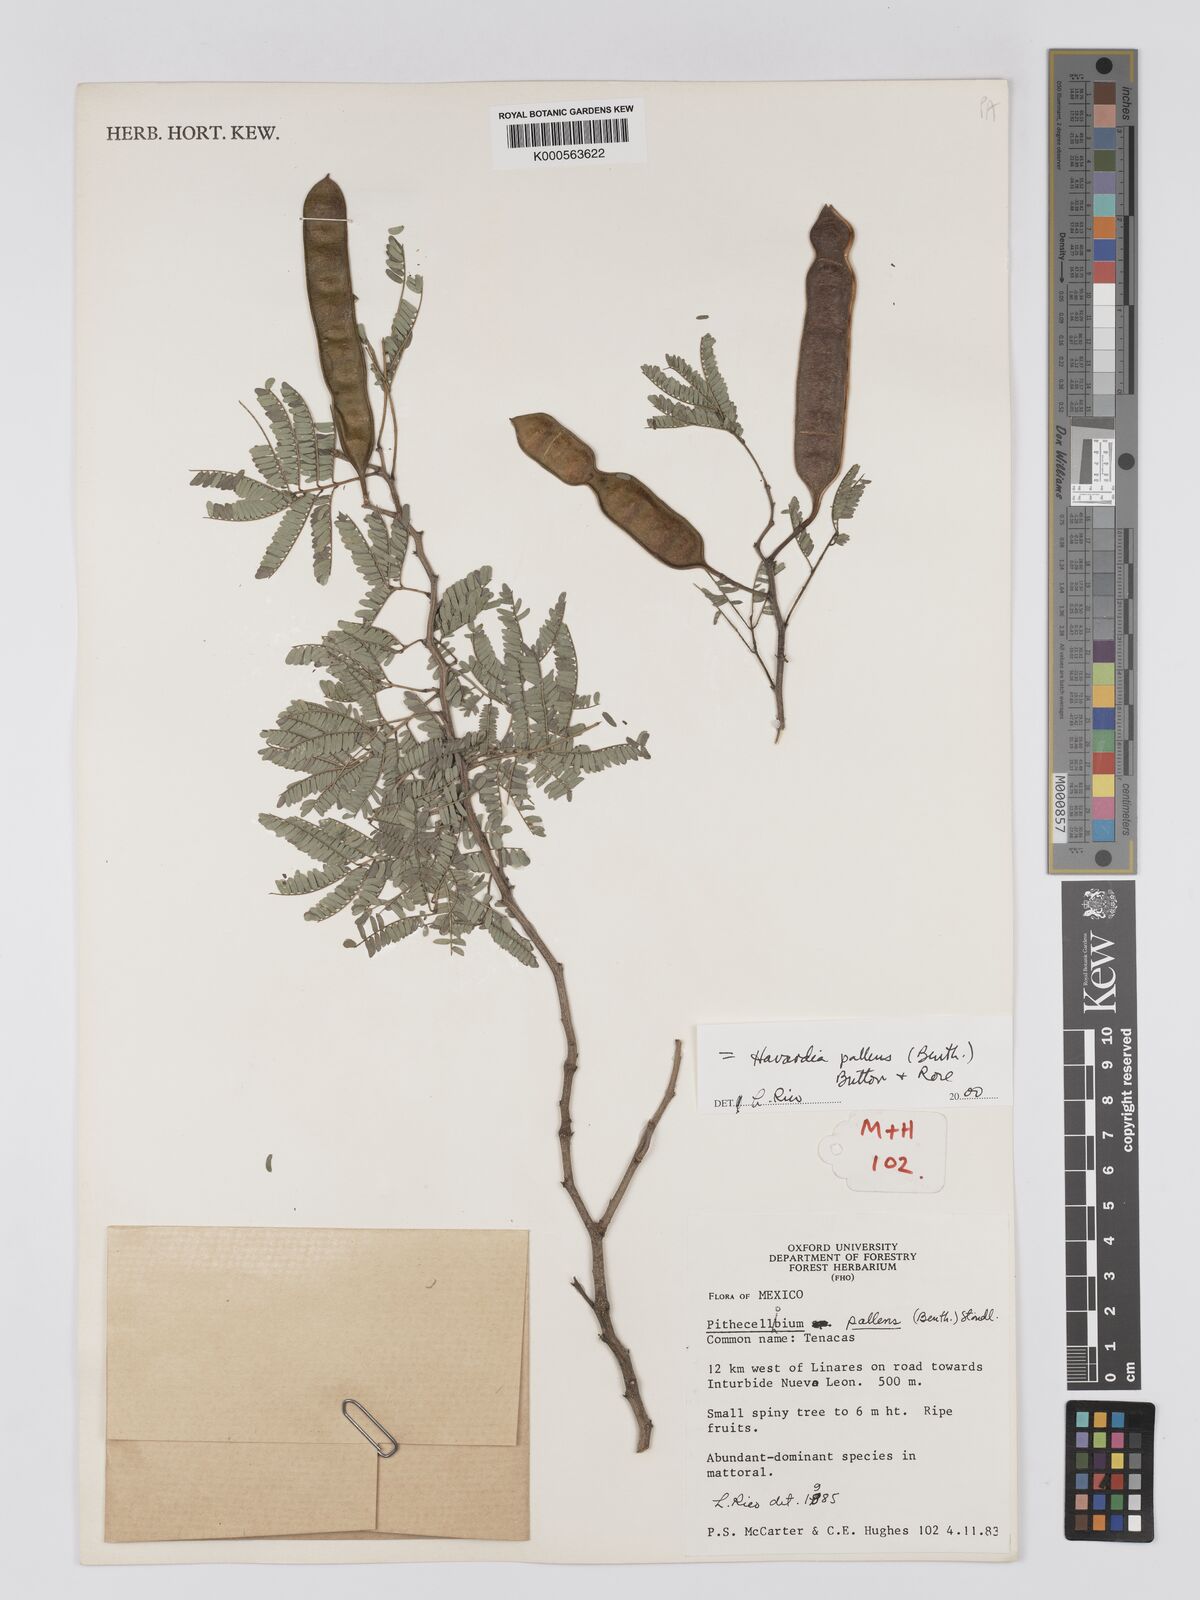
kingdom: Plantae
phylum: Tracheophyta
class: Magnoliopsida
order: Fabales
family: Fabaceae
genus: Havardia
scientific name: Havardia pallens
